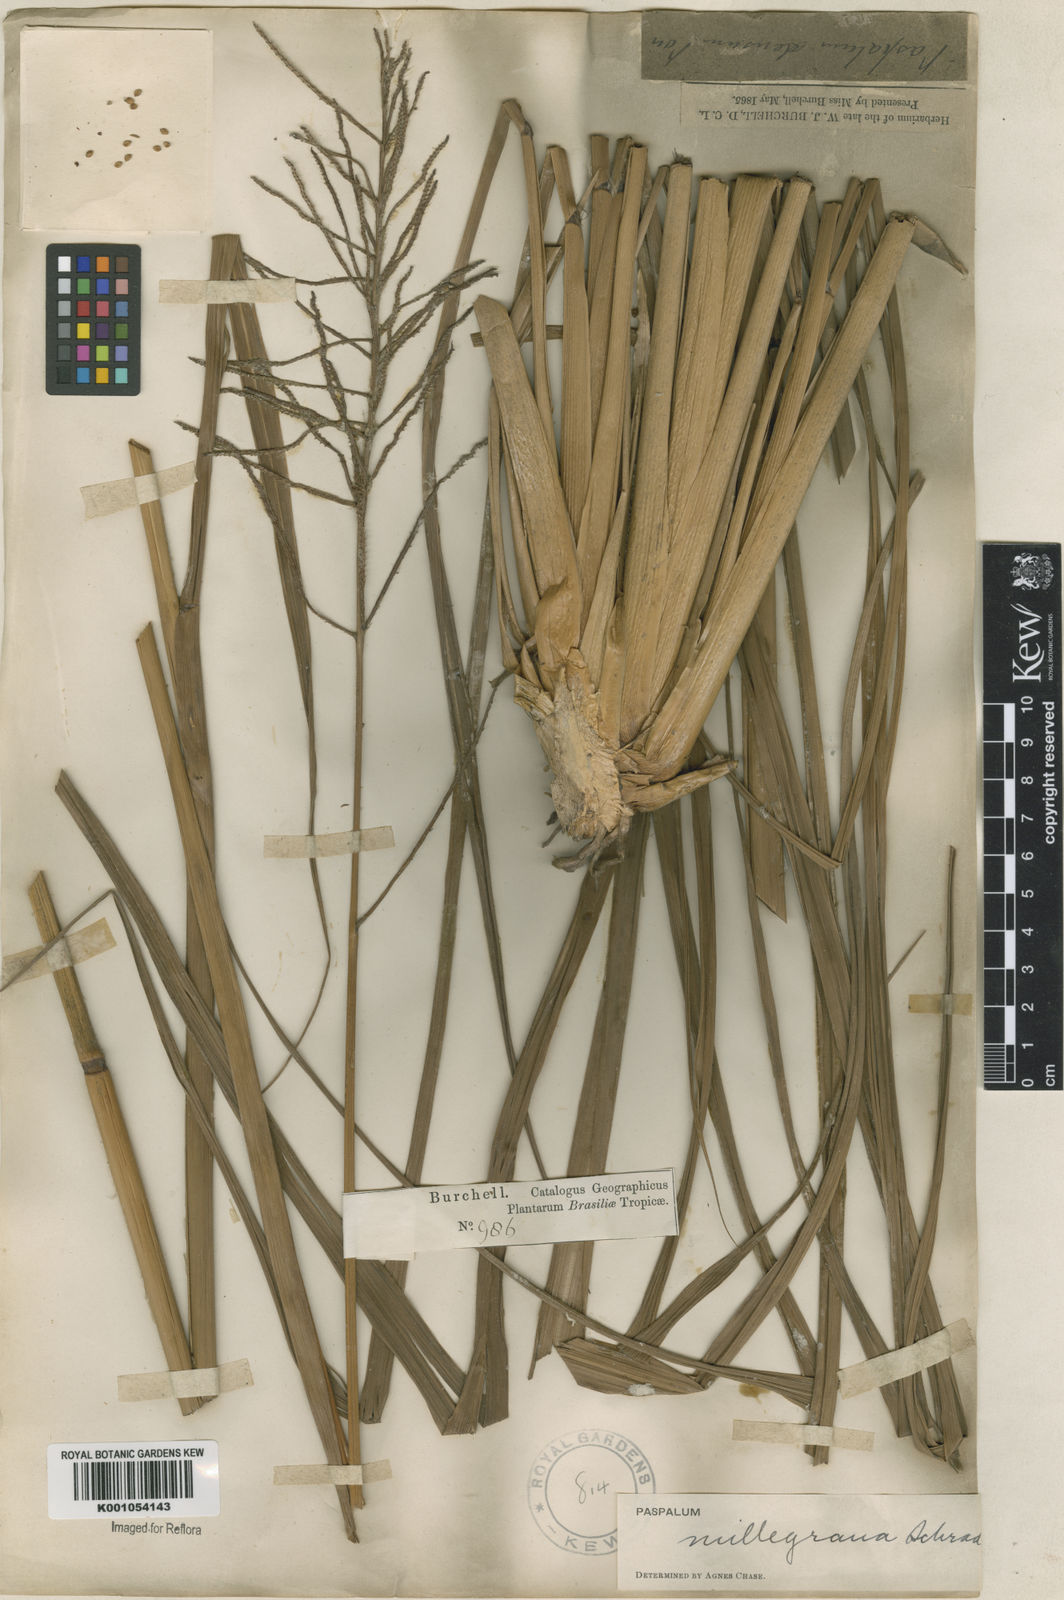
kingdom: Plantae
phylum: Tracheophyta
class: Liliopsida
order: Poales
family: Poaceae
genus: Paspalum
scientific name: Paspalum
